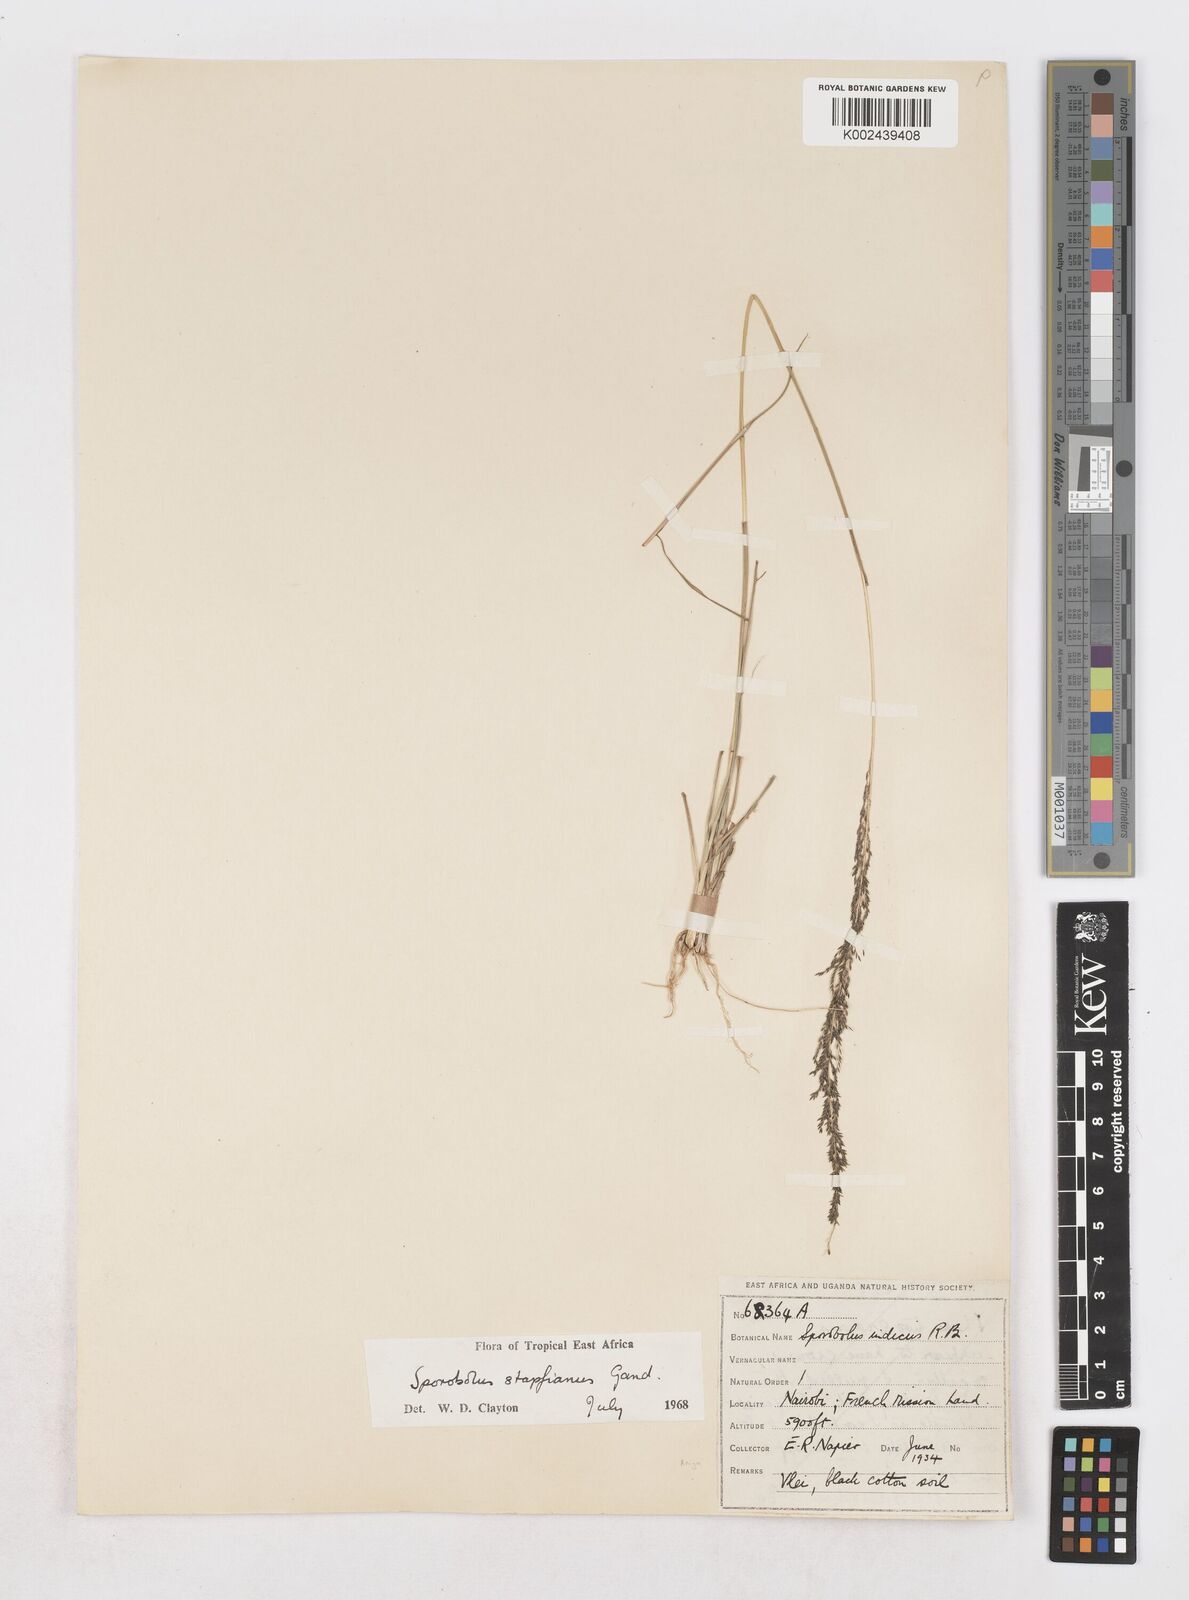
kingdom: Plantae
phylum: Tracheophyta
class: Liliopsida
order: Poales
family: Poaceae
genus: Sporobolus
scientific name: Sporobolus stapfianus
